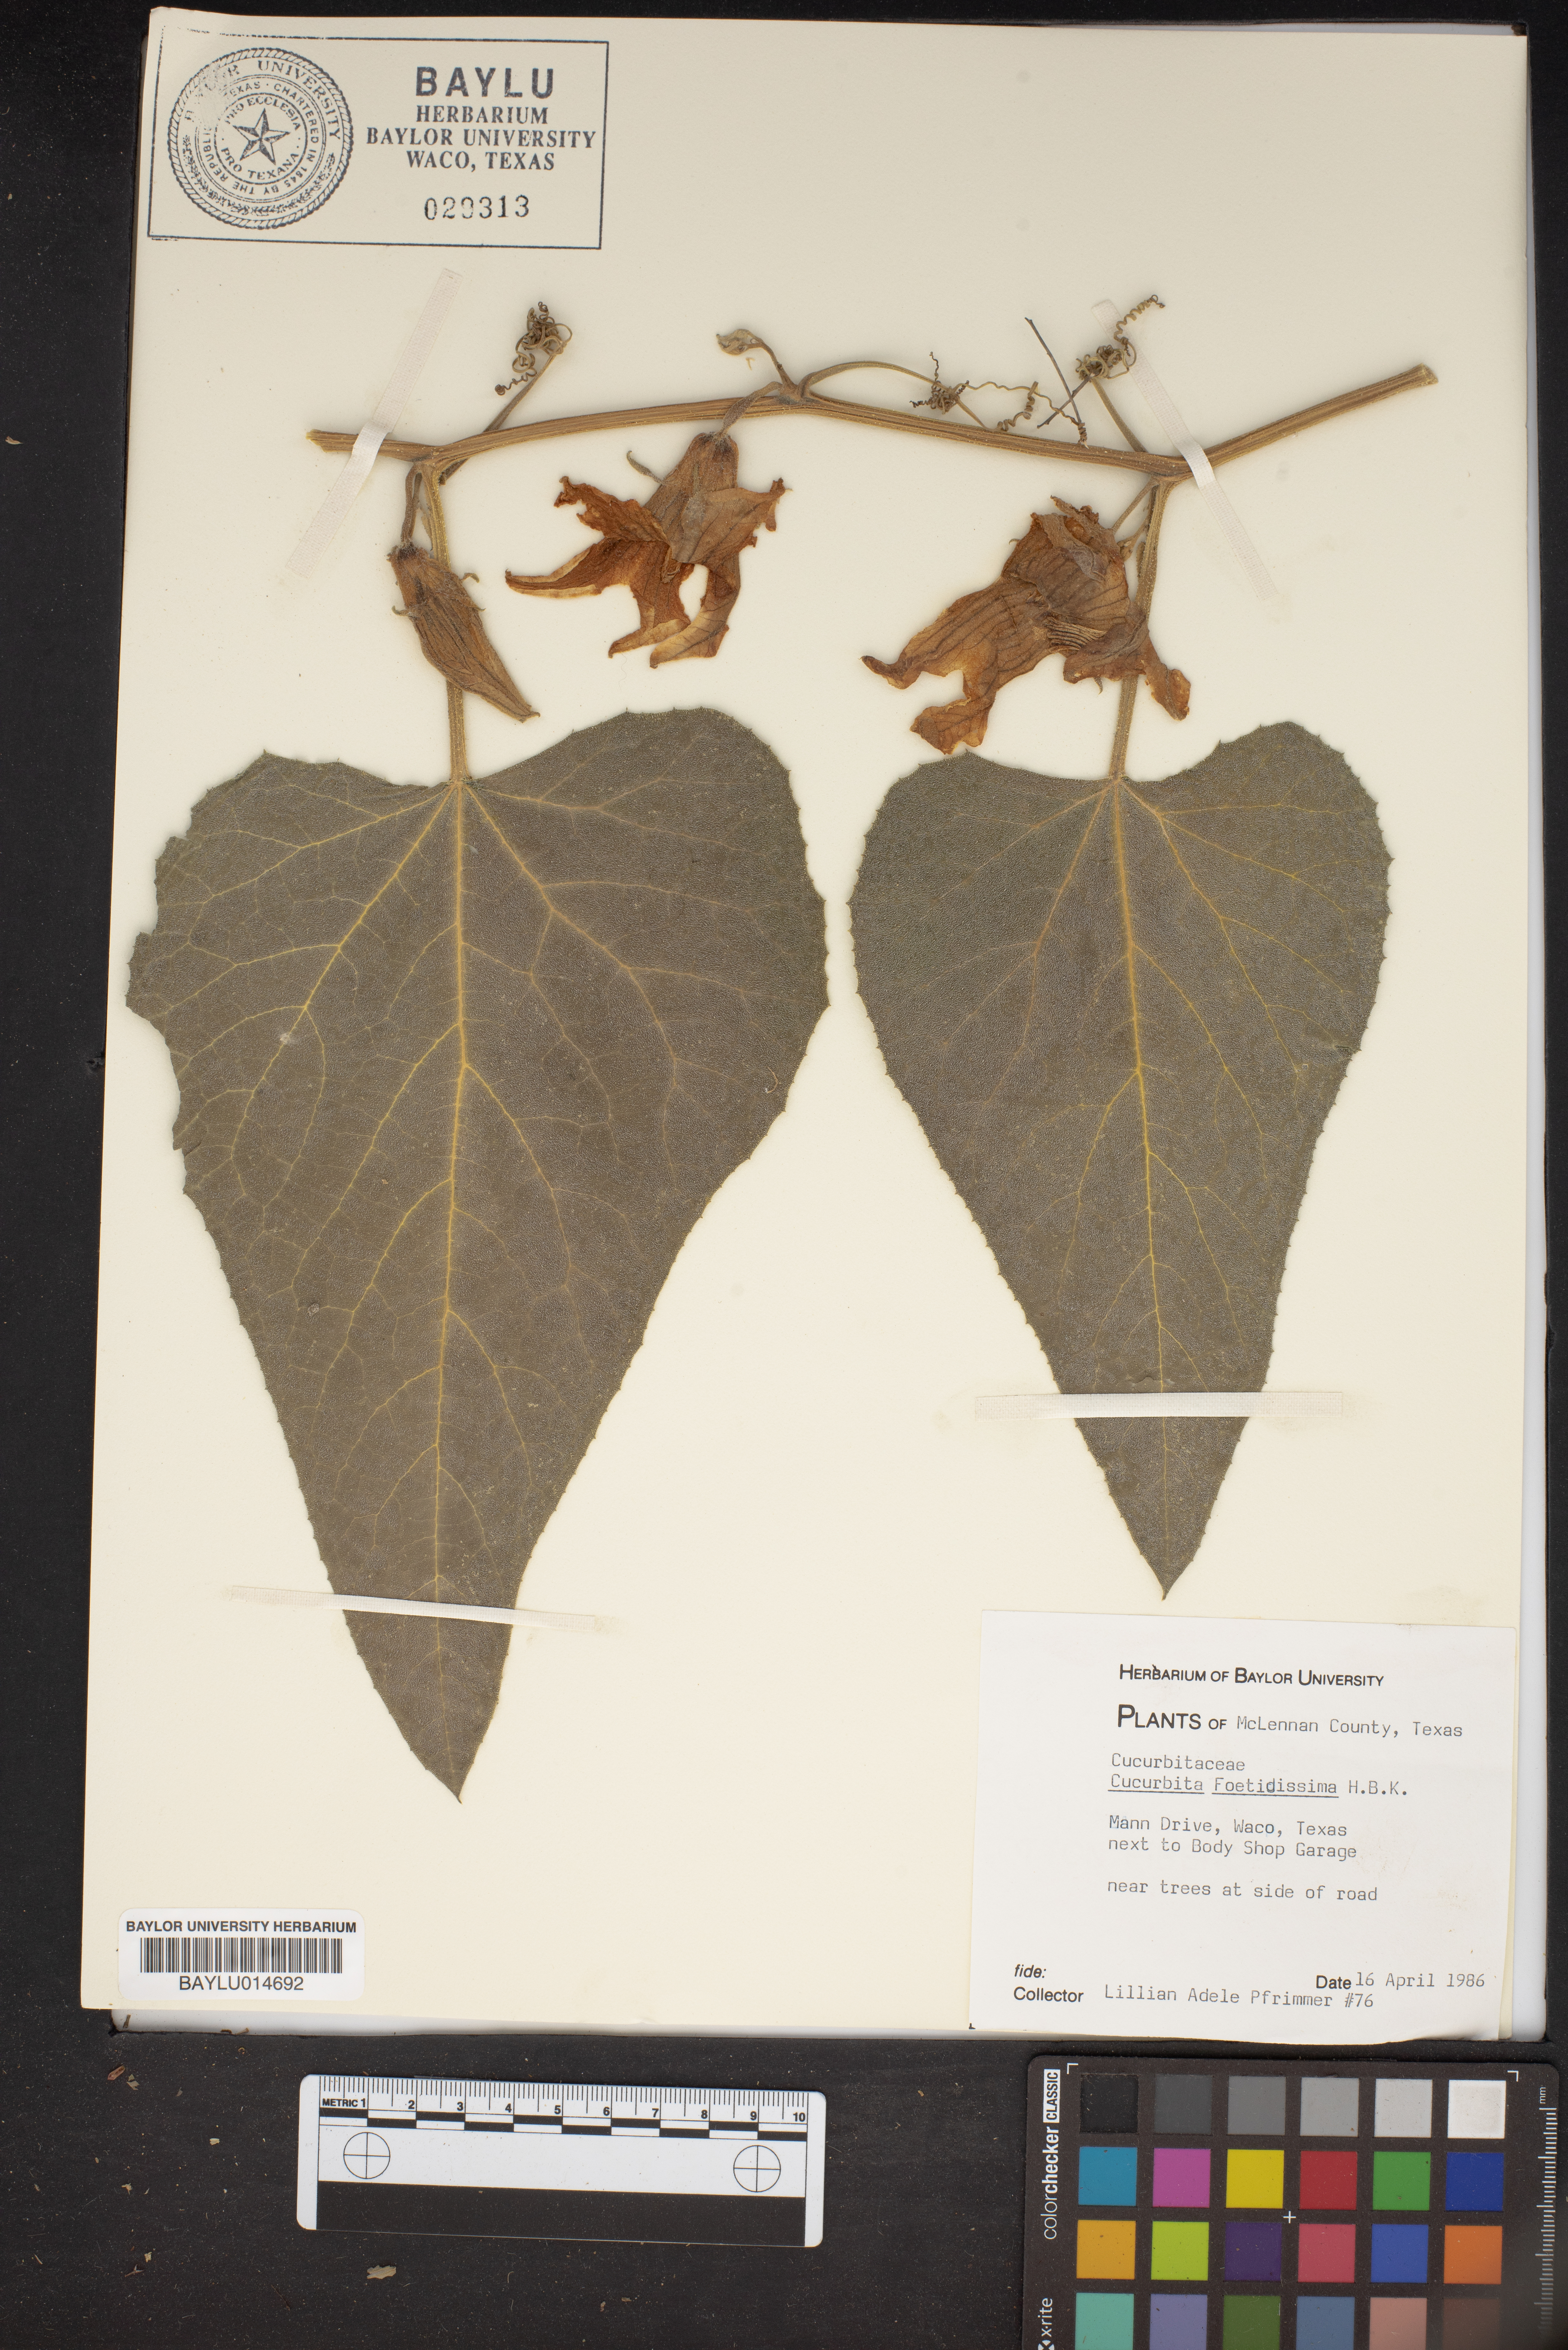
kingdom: Plantae
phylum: Tracheophyta
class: Magnoliopsida
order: Cucurbitales
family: Cucurbitaceae
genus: Cucurbita
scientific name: Cucurbita foetidissima
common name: Buffalo gourd
